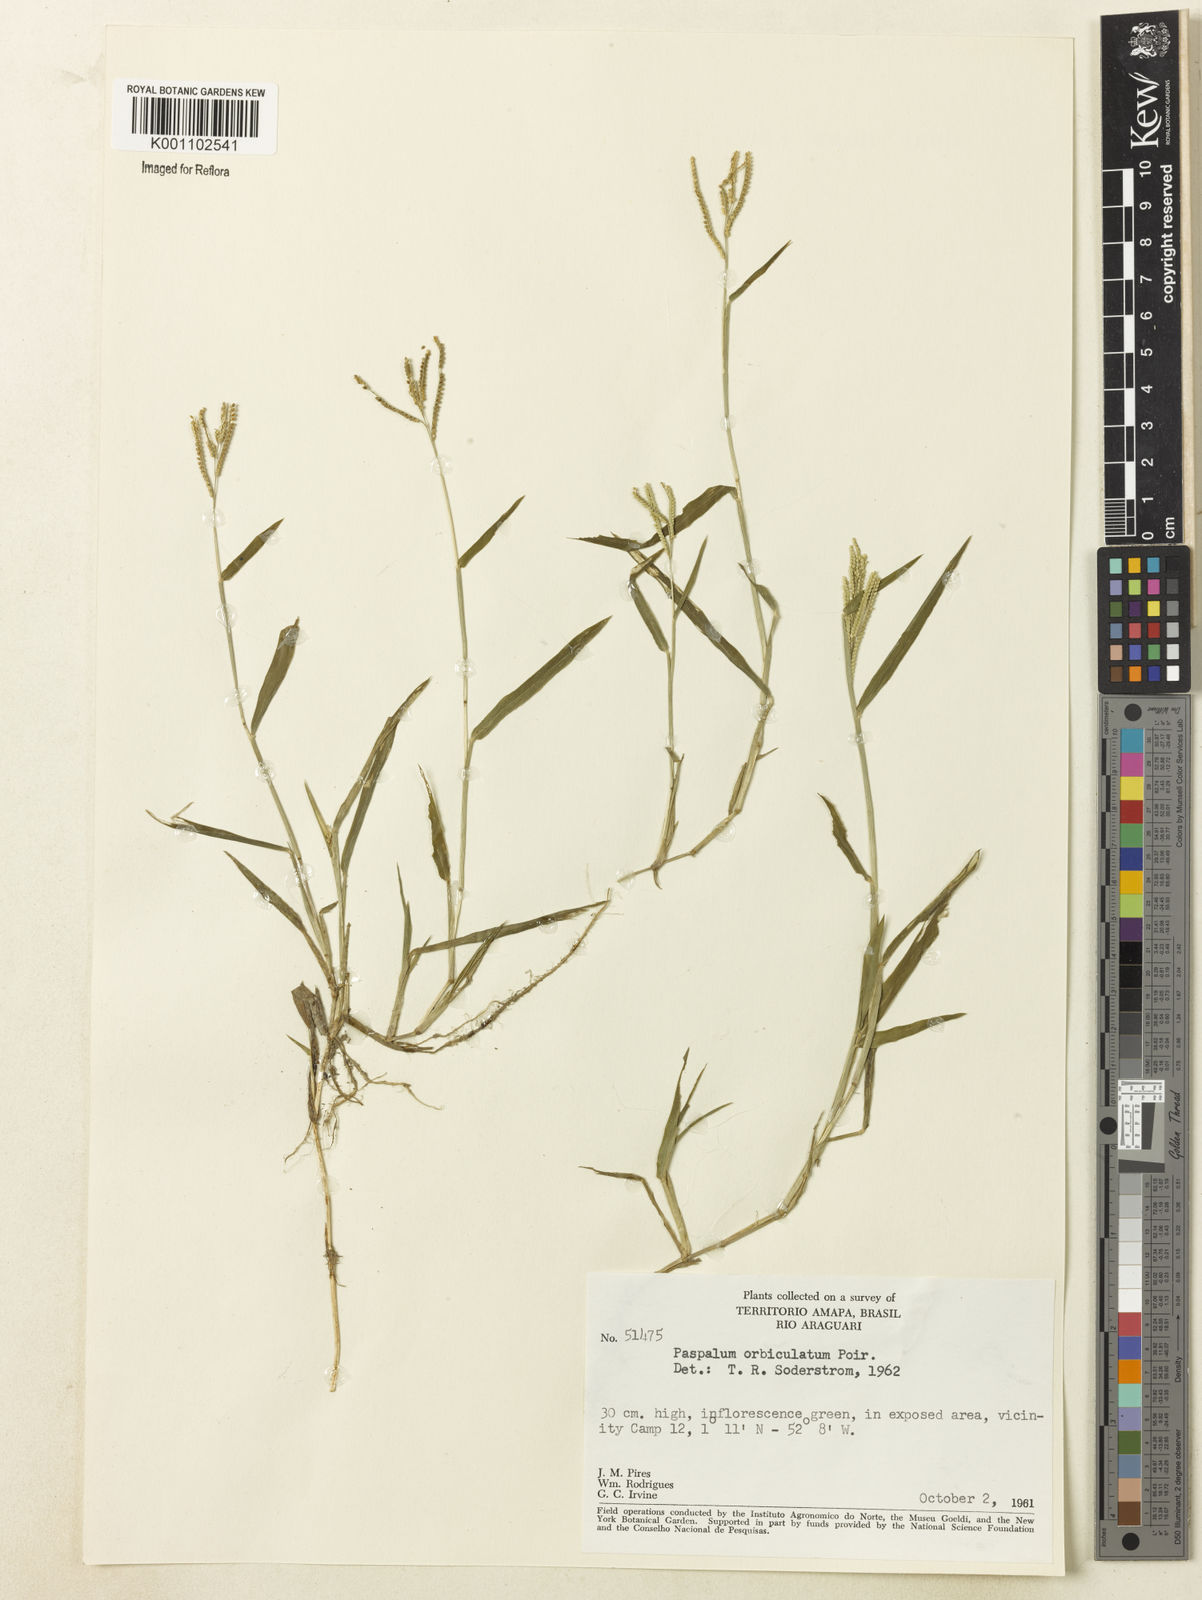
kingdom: Plantae
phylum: Tracheophyta
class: Liliopsida
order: Poales
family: Poaceae
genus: Paspalum
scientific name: Paspalum orbiculatum
